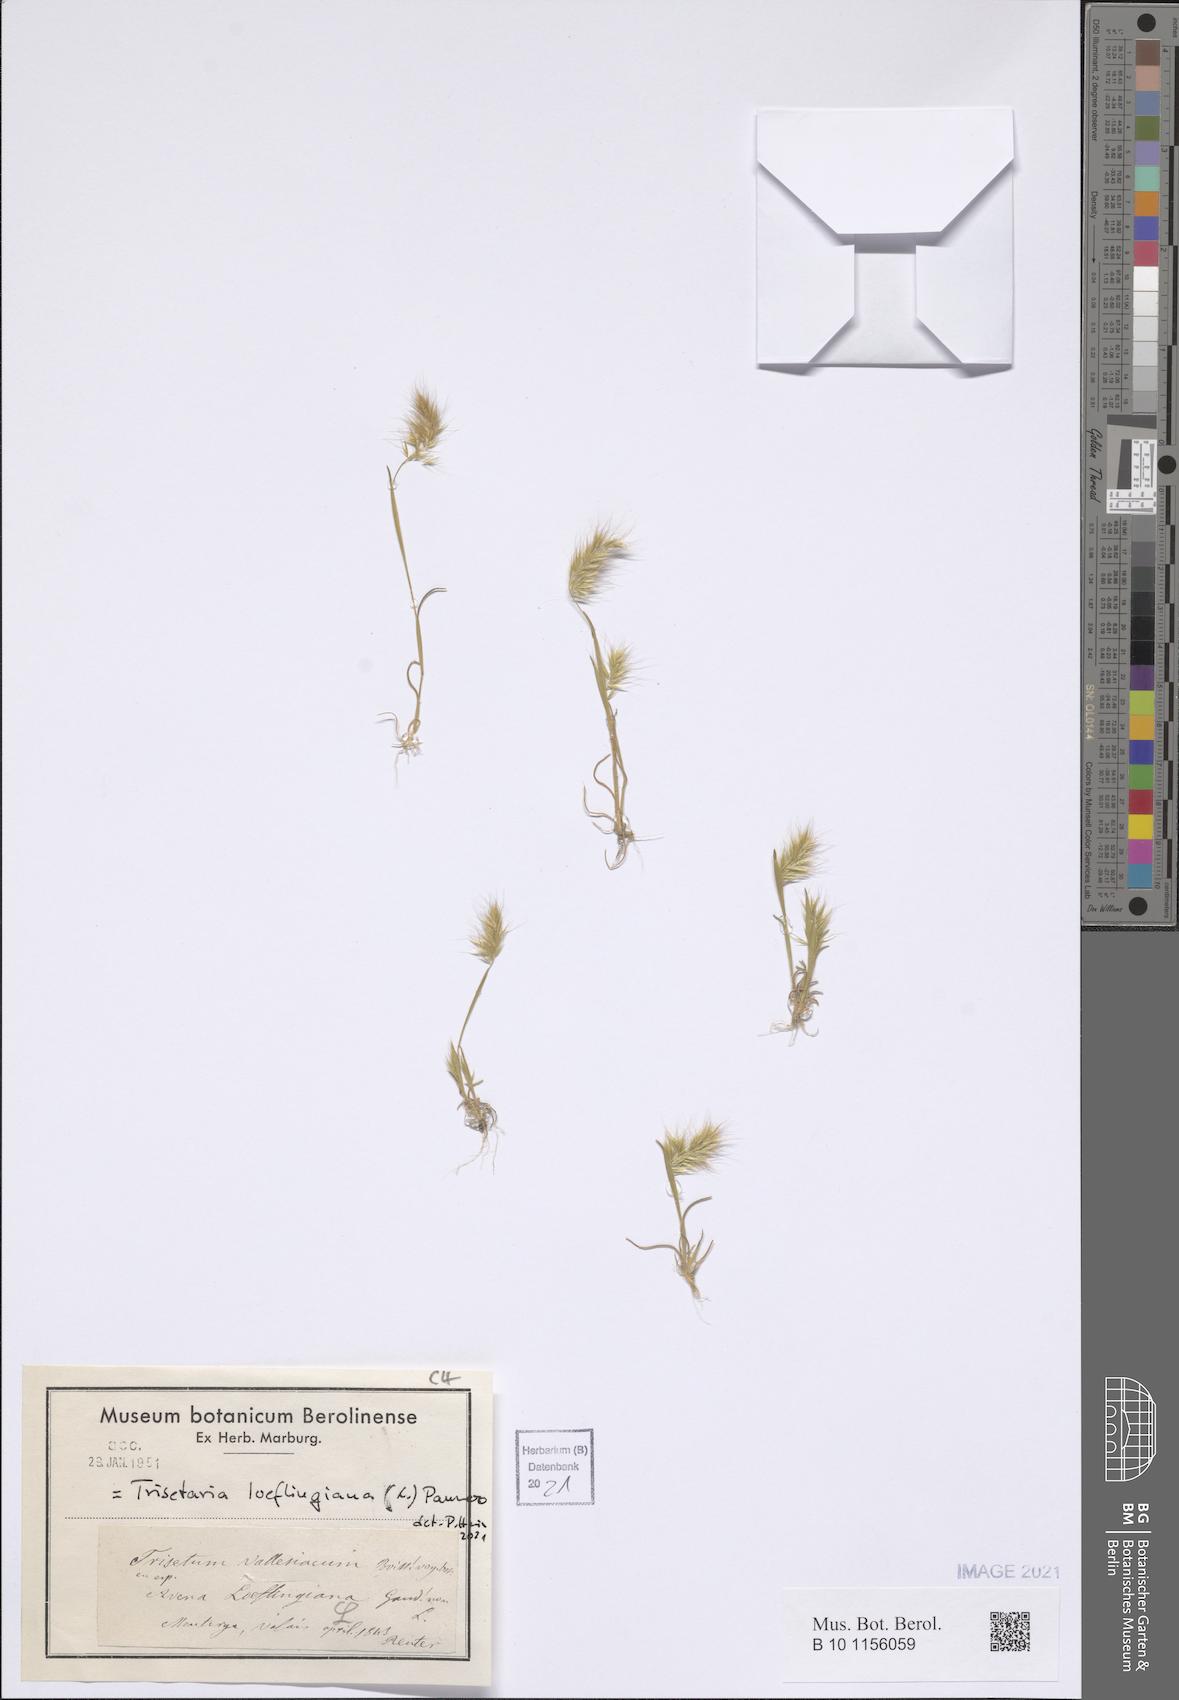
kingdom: Plantae
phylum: Tracheophyta
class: Liliopsida
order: Poales
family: Poaceae
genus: Trisetaria
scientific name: Trisetaria loeflingiana
